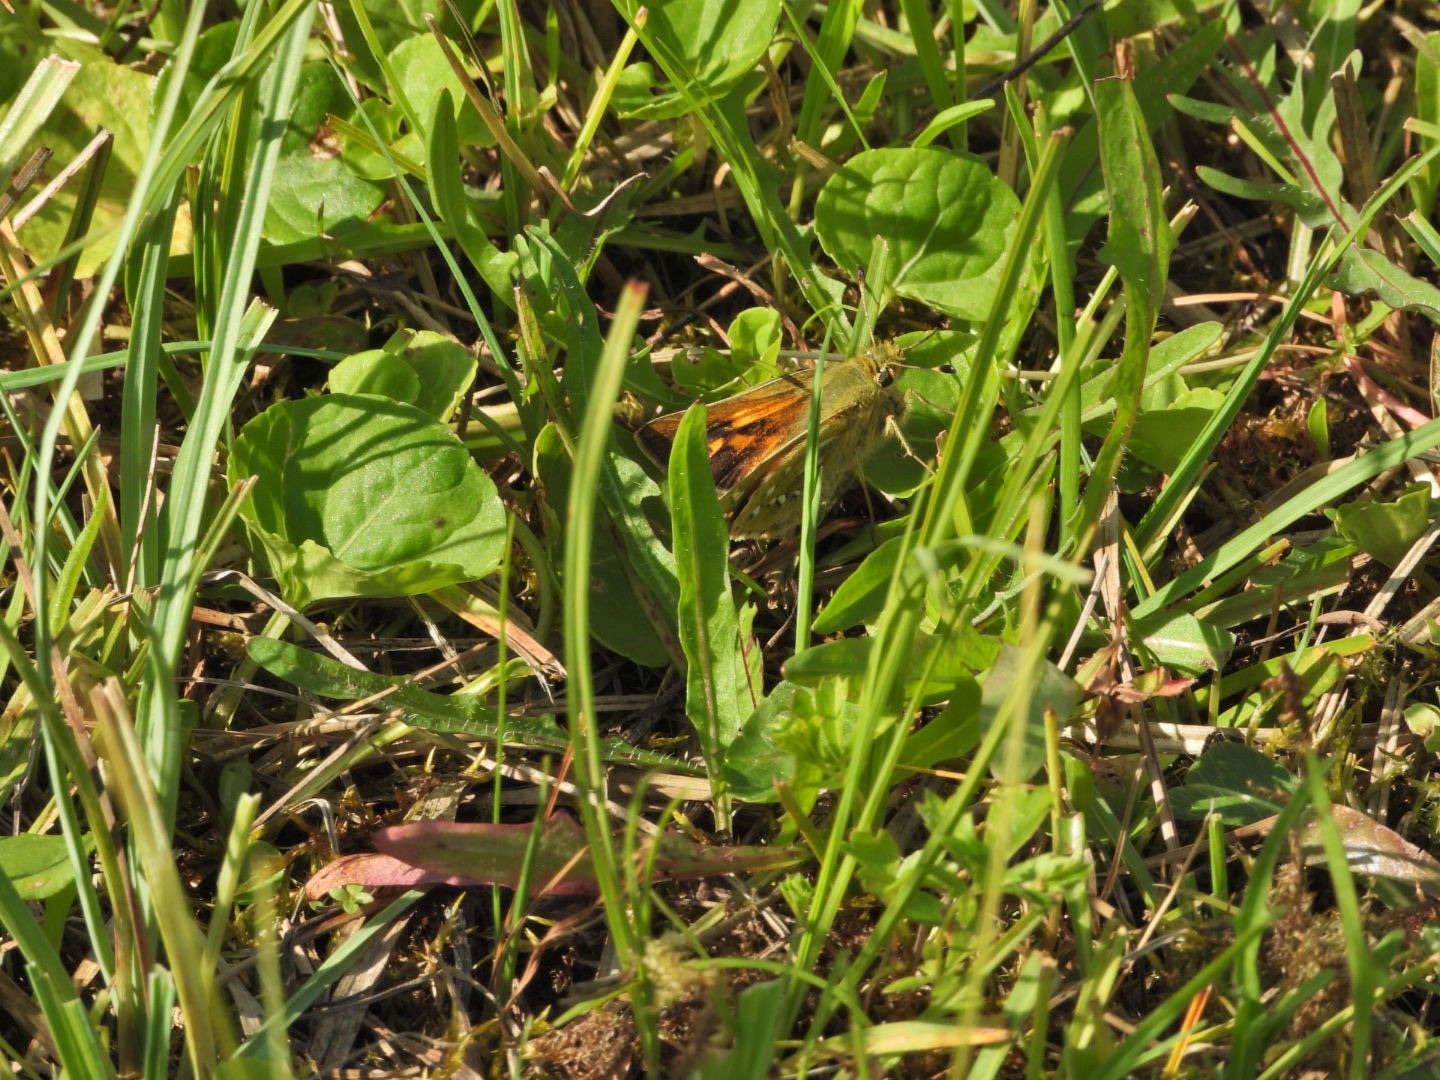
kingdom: Animalia
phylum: Arthropoda
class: Insecta
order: Lepidoptera
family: Hesperiidae
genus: Hesperia
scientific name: Hesperia comma
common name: Kommabredpande
